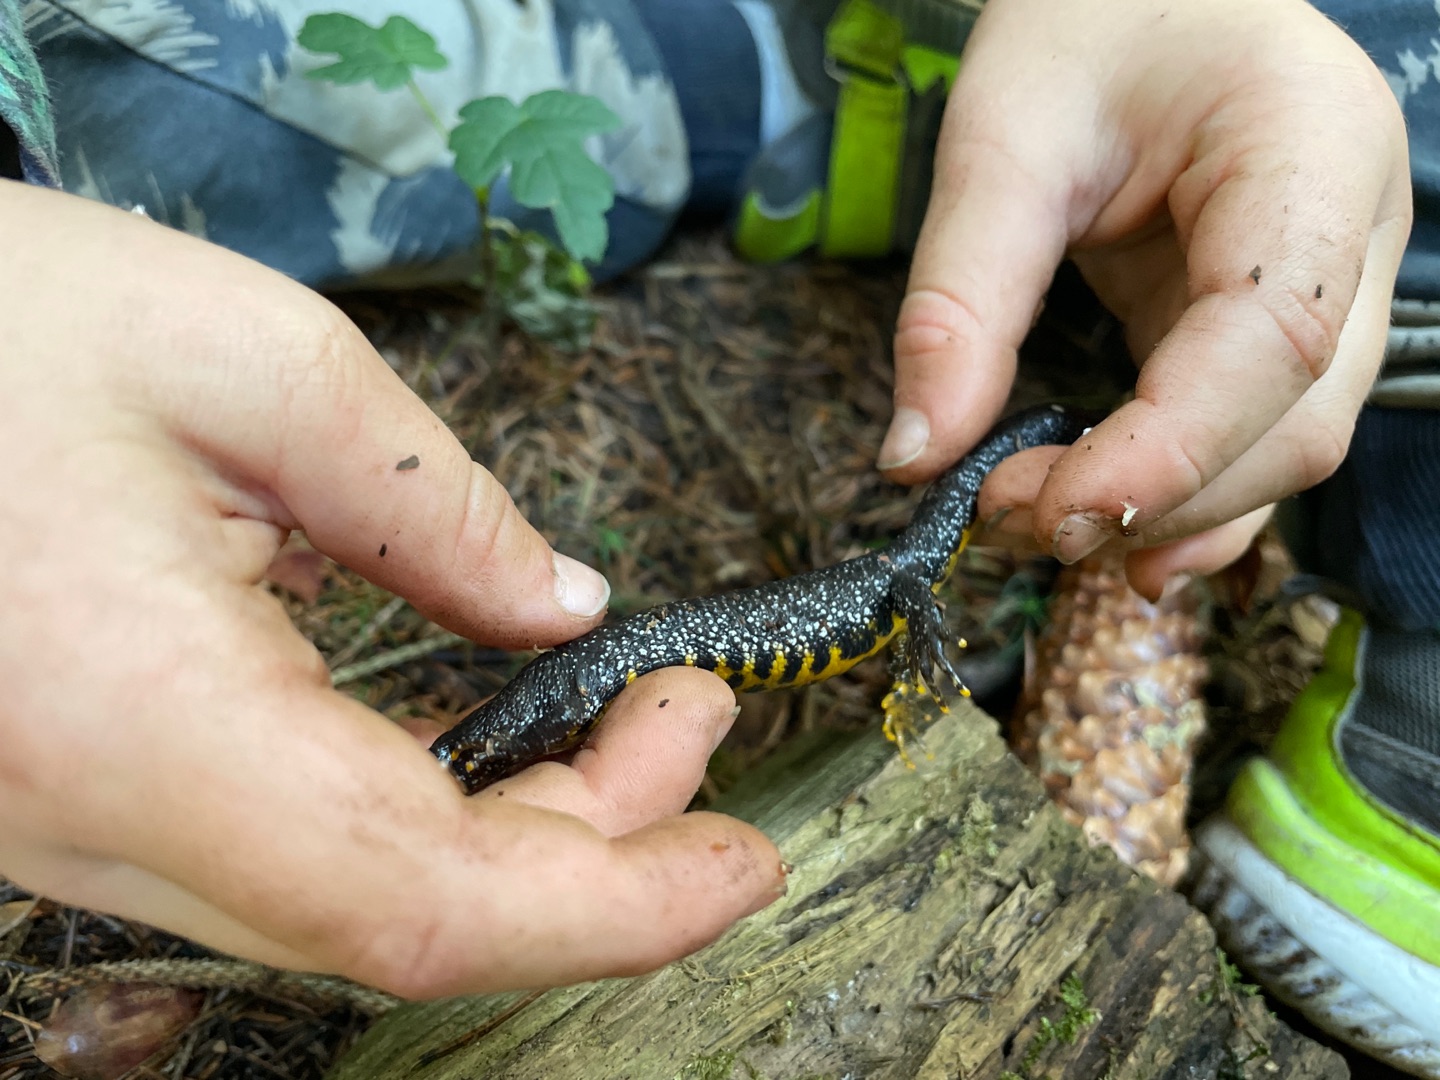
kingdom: Animalia
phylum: Chordata
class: Amphibia
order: Caudata
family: Salamandridae
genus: Triturus
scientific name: Triturus cristatus
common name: Stor vandsalamander
